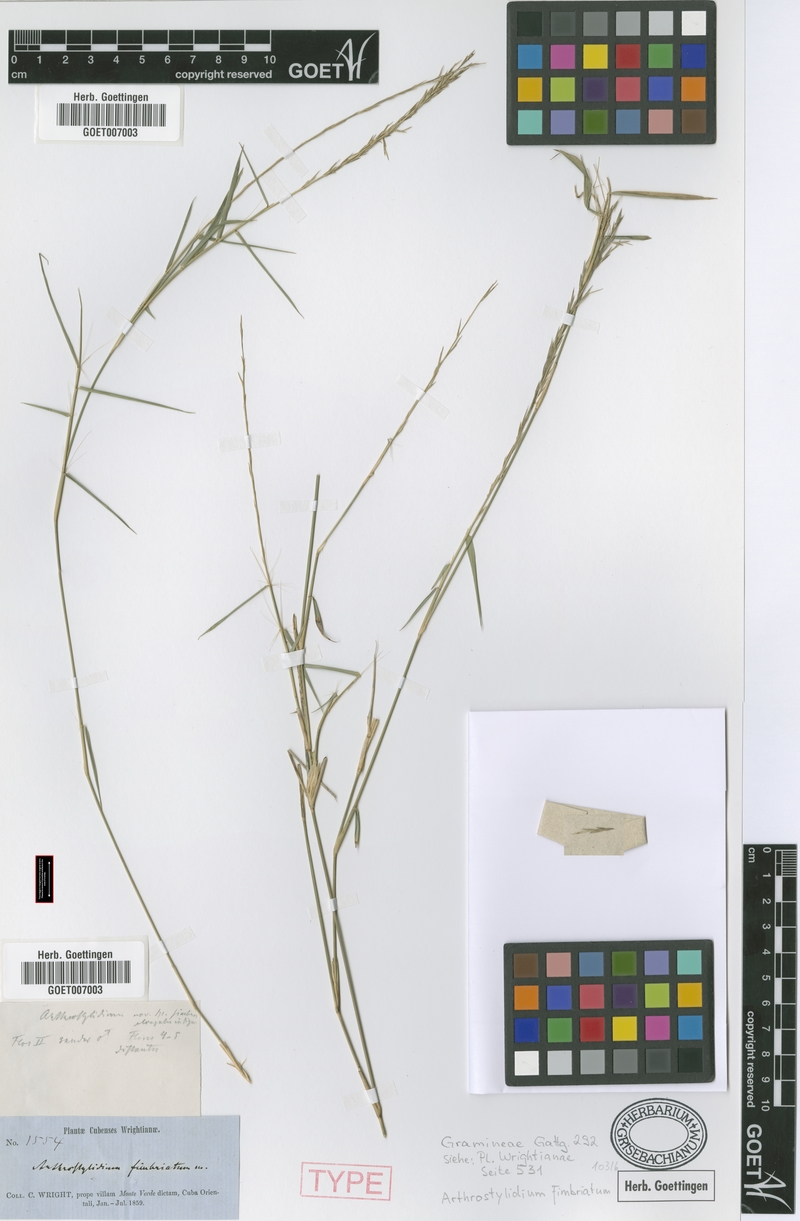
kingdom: Plantae
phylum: Tracheophyta
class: Liliopsida
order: Poales
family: Poaceae
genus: Arthrostylidium
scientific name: Arthrostylidium fimbriatum
